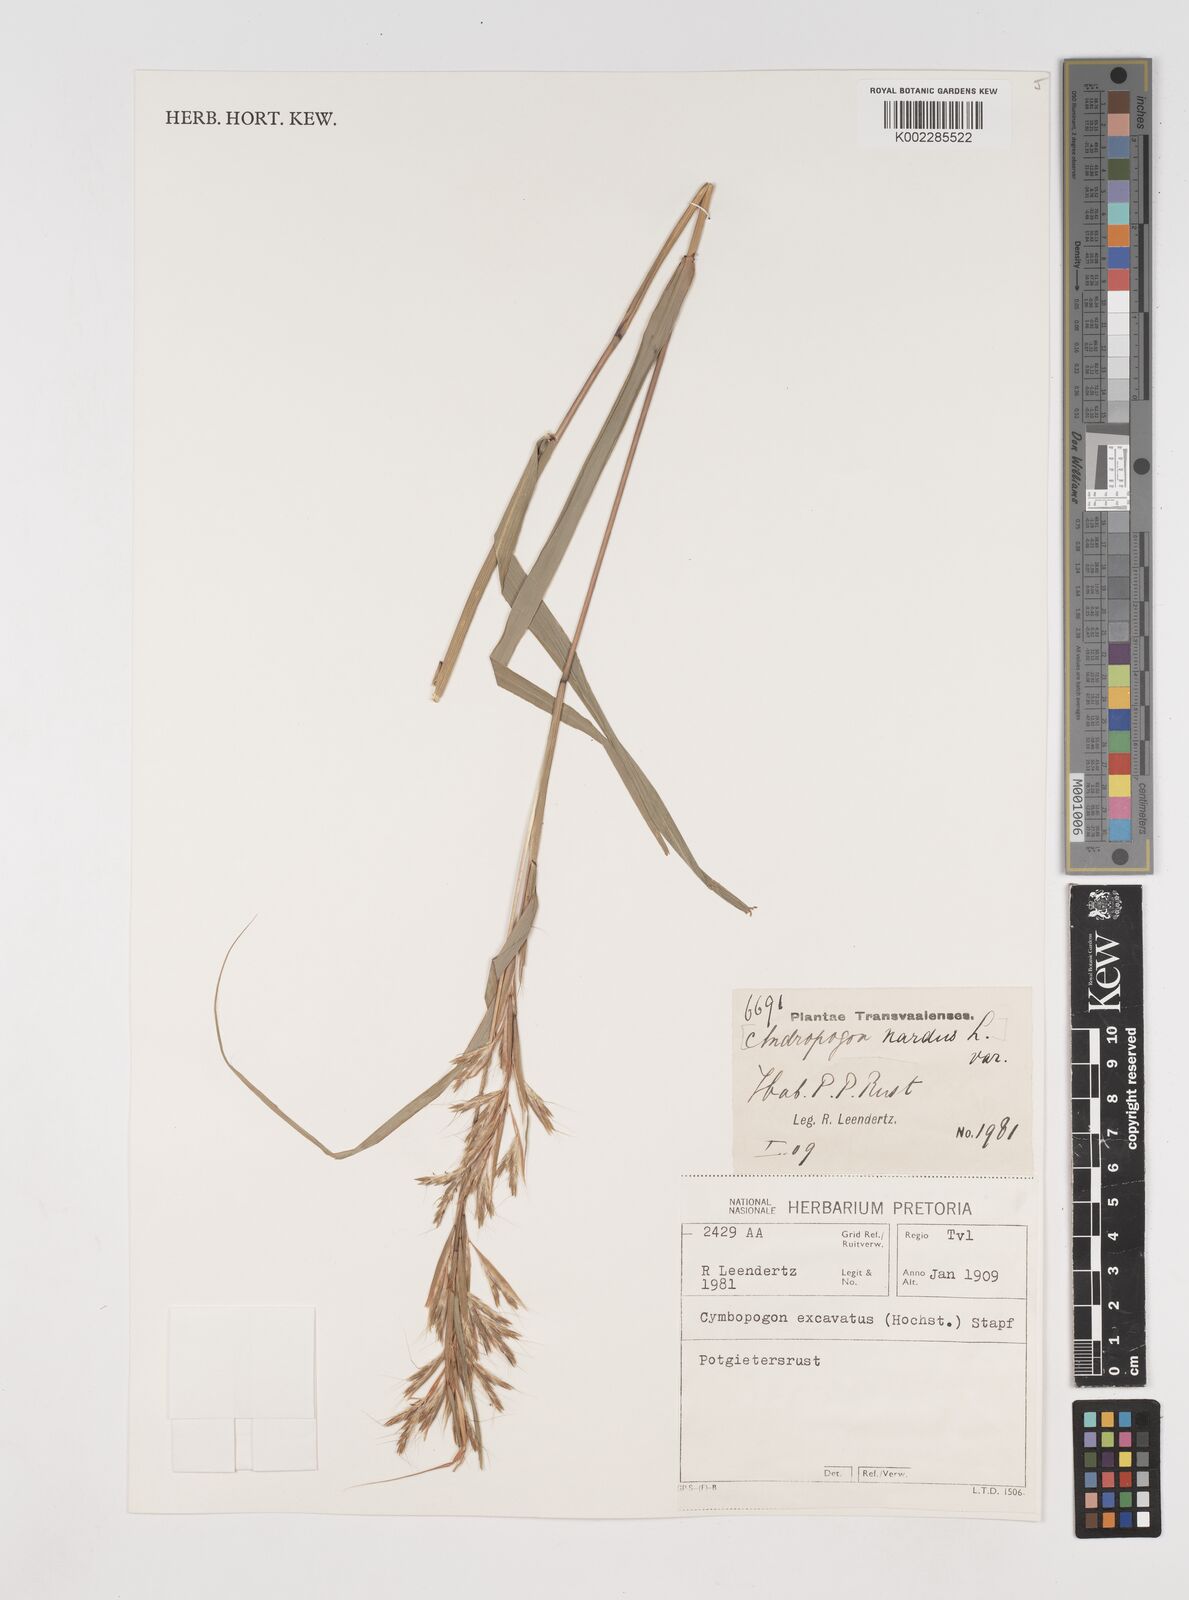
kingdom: Plantae
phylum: Tracheophyta
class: Liliopsida
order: Poales
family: Poaceae
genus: Cymbopogon
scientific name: Cymbopogon caesius
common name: Kachi grass
